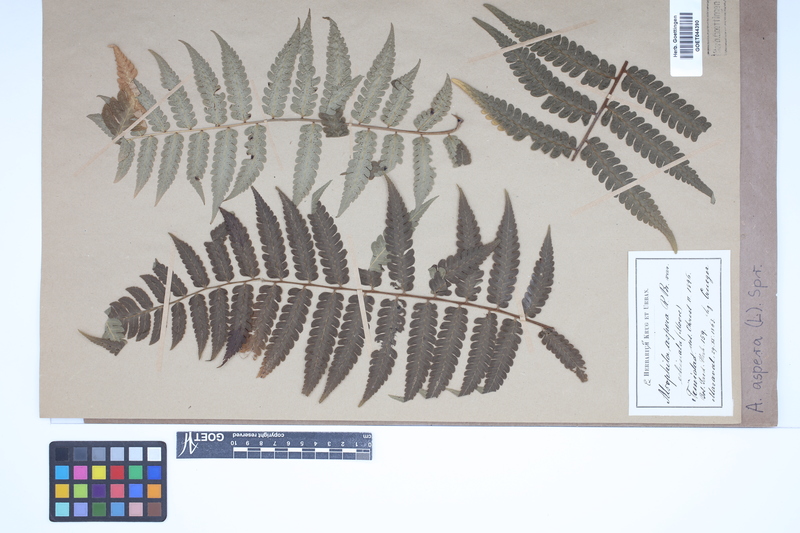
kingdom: Plantae
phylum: Tracheophyta
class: Polypodiopsida
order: Cyatheales
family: Cyatheaceae
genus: Cyathea
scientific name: Cyathea aspera
